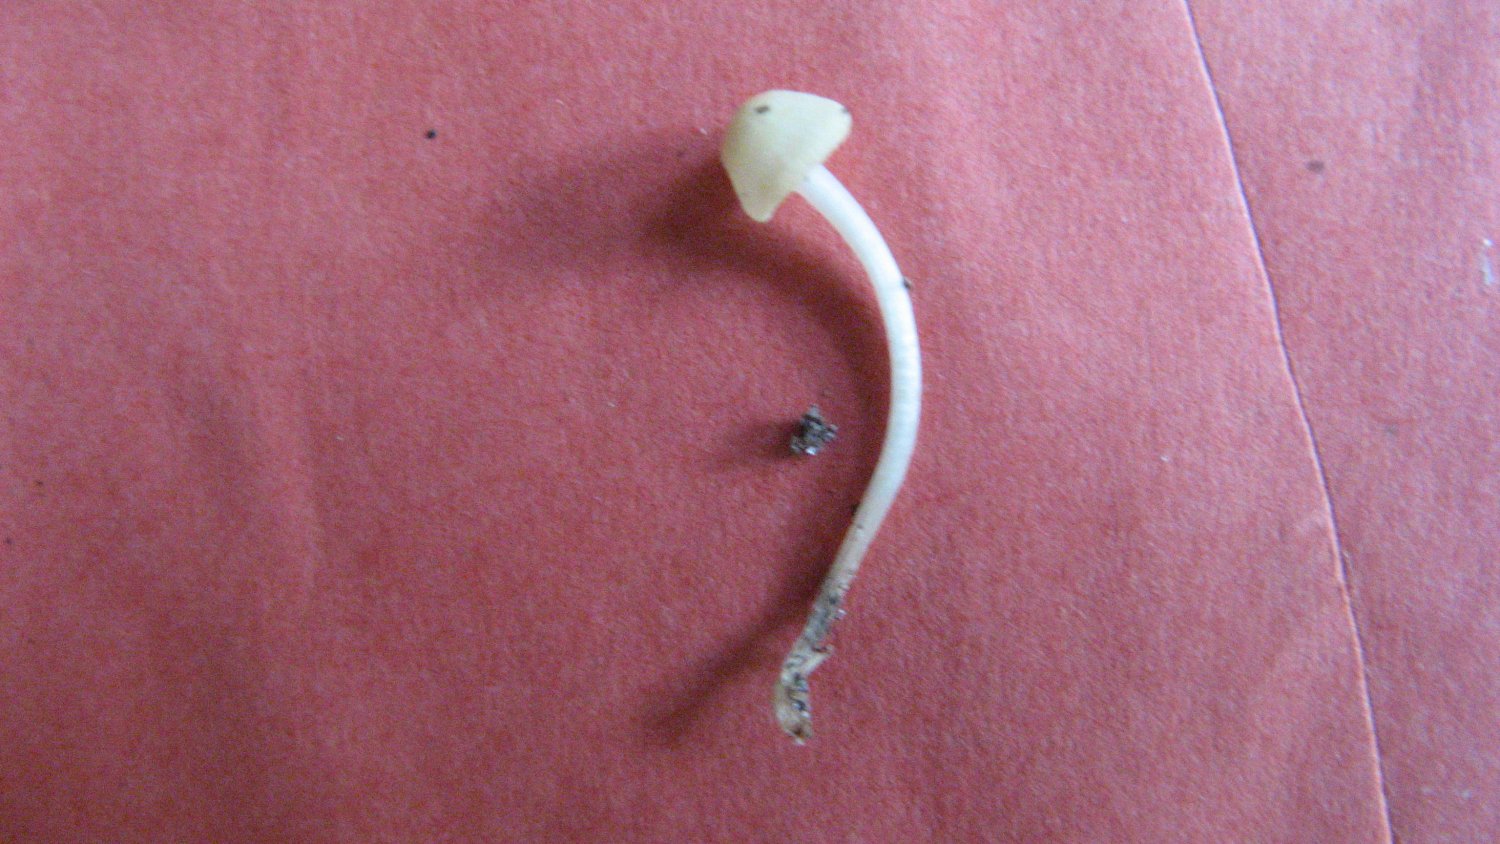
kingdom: Fungi
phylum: Basidiomycota
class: Agaricomycetes
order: Agaricales
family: Mycenaceae
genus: Atheniella
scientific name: Atheniella flavoalba
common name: gulhvid huesvamp
